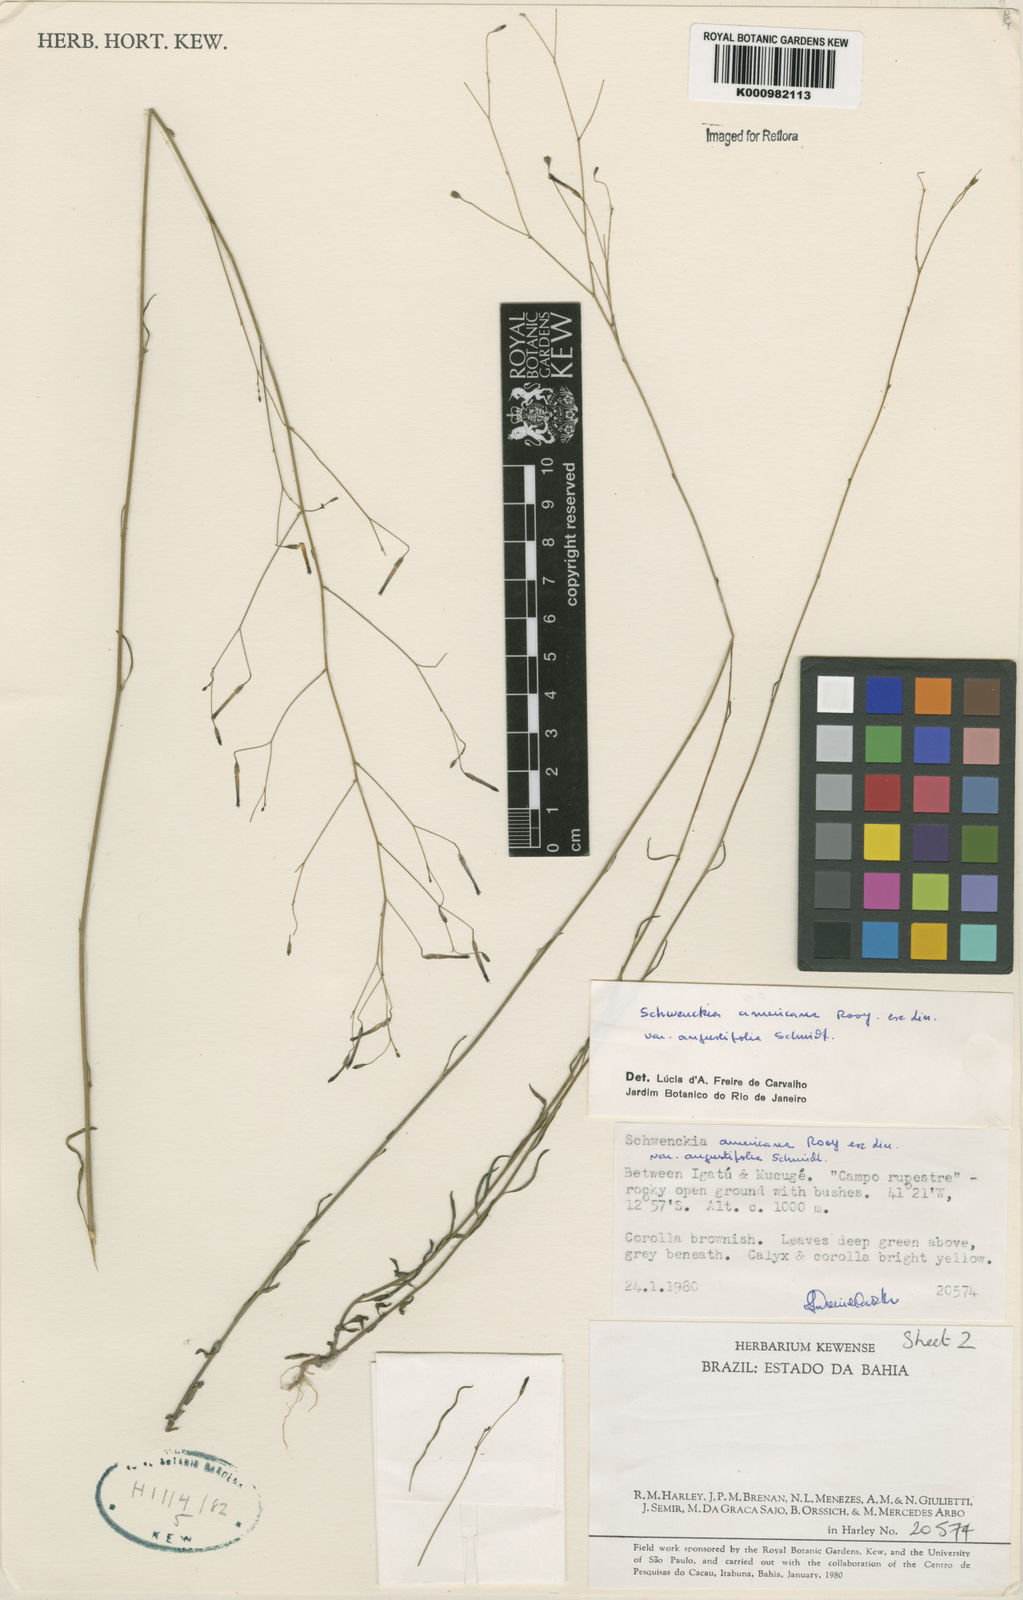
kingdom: Plantae
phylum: Tracheophyta
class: Magnoliopsida
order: Solanales
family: Solanaceae
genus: Schwenckia
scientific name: Schwenckia americana
